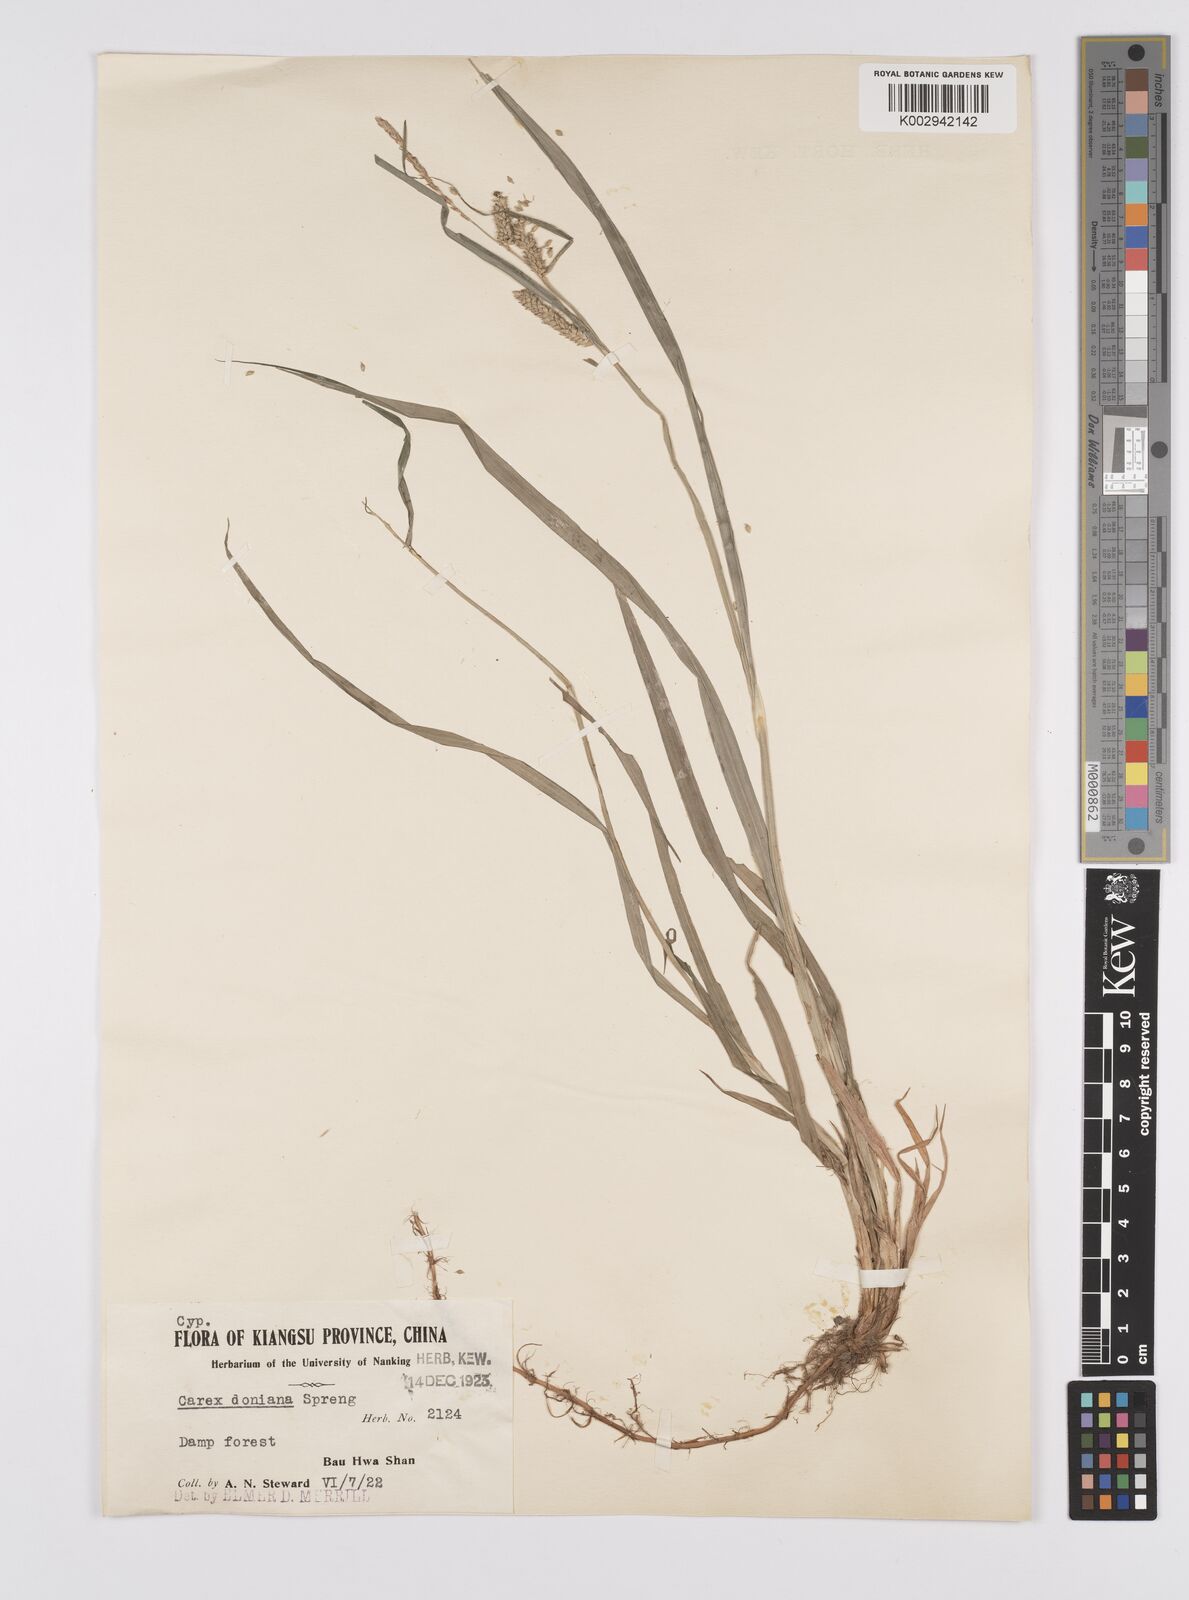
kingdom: Plantae
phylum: Tracheophyta
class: Liliopsida
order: Poales
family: Cyperaceae
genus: Carex
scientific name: Carex japonica
